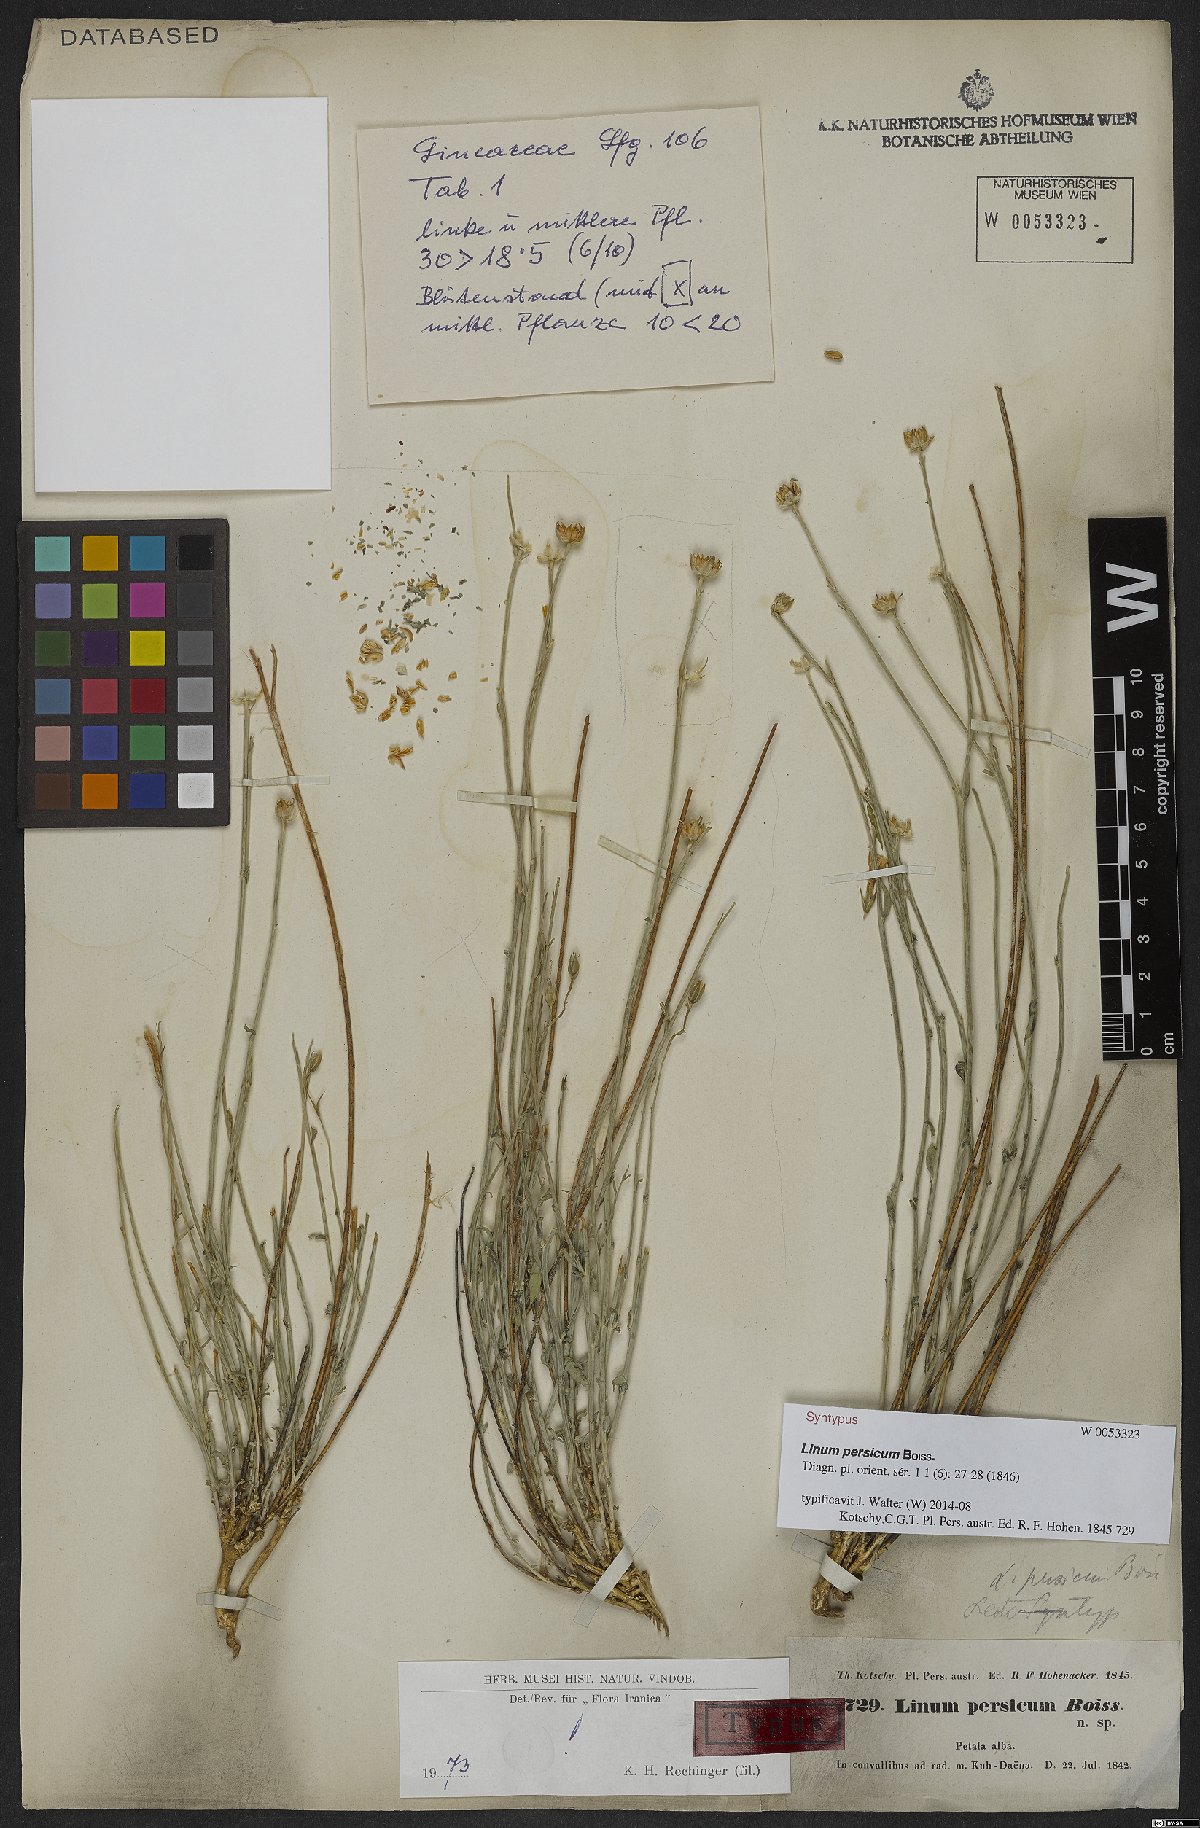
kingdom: Plantae
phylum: Tracheophyta
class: Magnoliopsida
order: Malpighiales
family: Linaceae
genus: Linum
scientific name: Linum persicum
